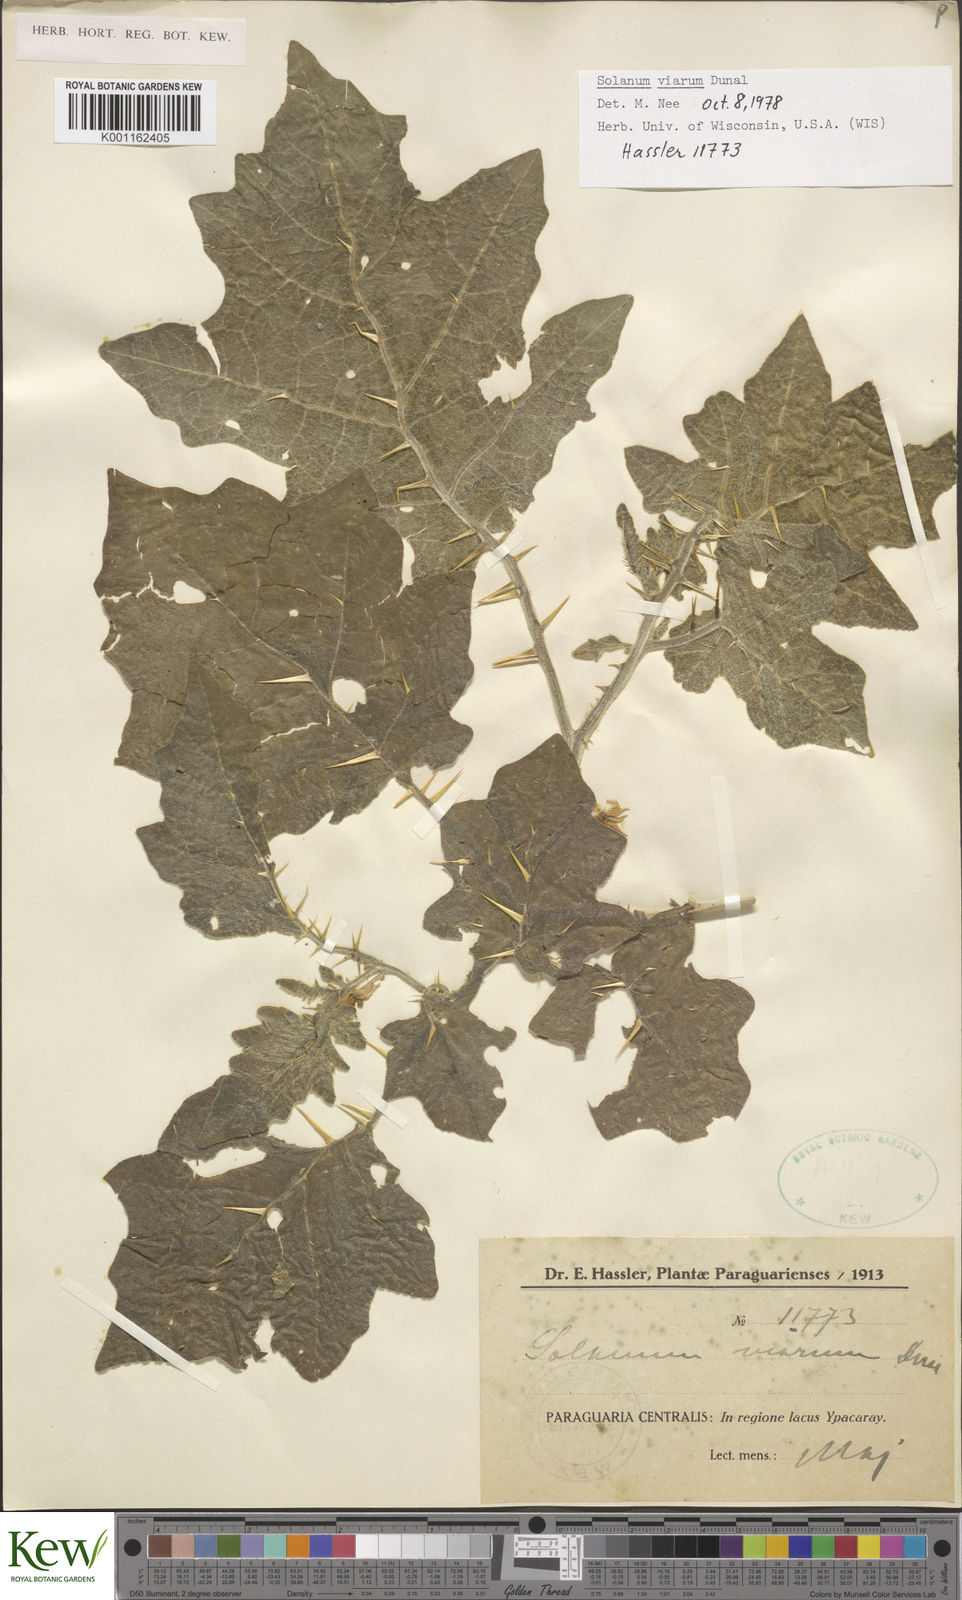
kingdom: Plantae
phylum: Tracheophyta
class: Magnoliopsida
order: Solanales
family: Solanaceae
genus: Solanum
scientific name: Solanum viarum
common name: Tropical soda apple
